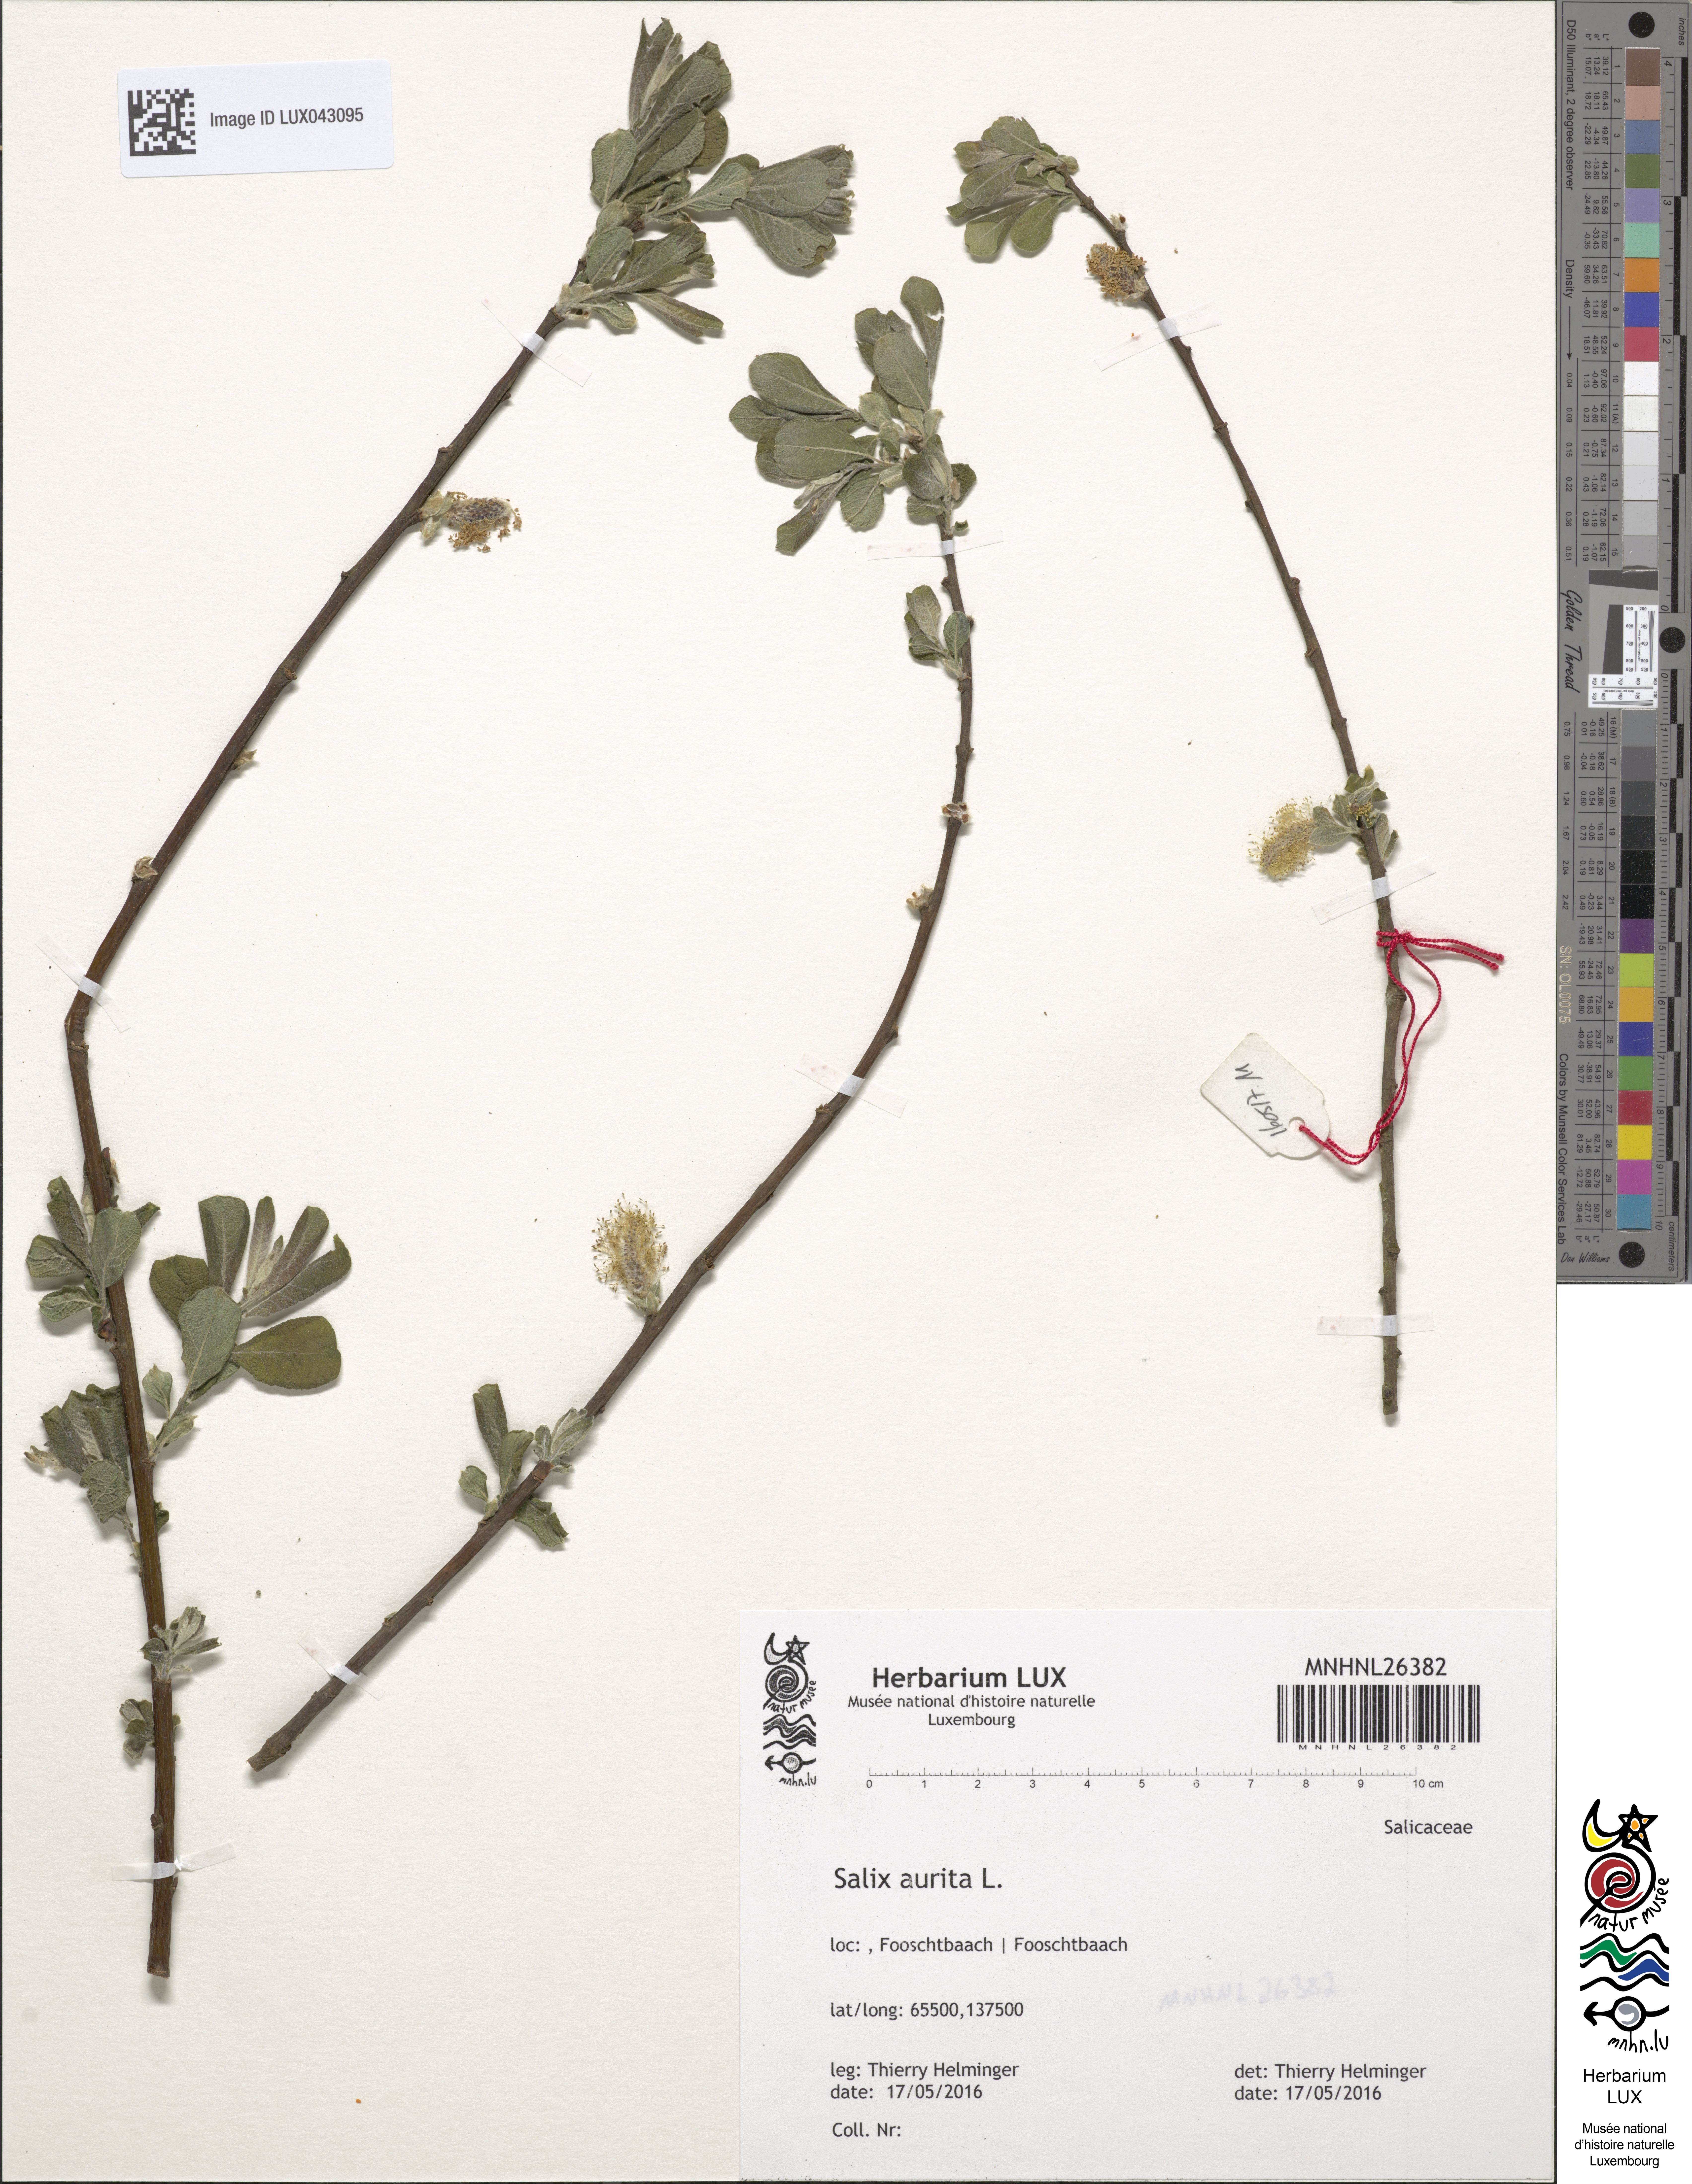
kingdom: Plantae
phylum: Tracheophyta
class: Magnoliopsida
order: Malpighiales
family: Salicaceae
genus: Salix
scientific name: Salix aurita
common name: Eared willow
